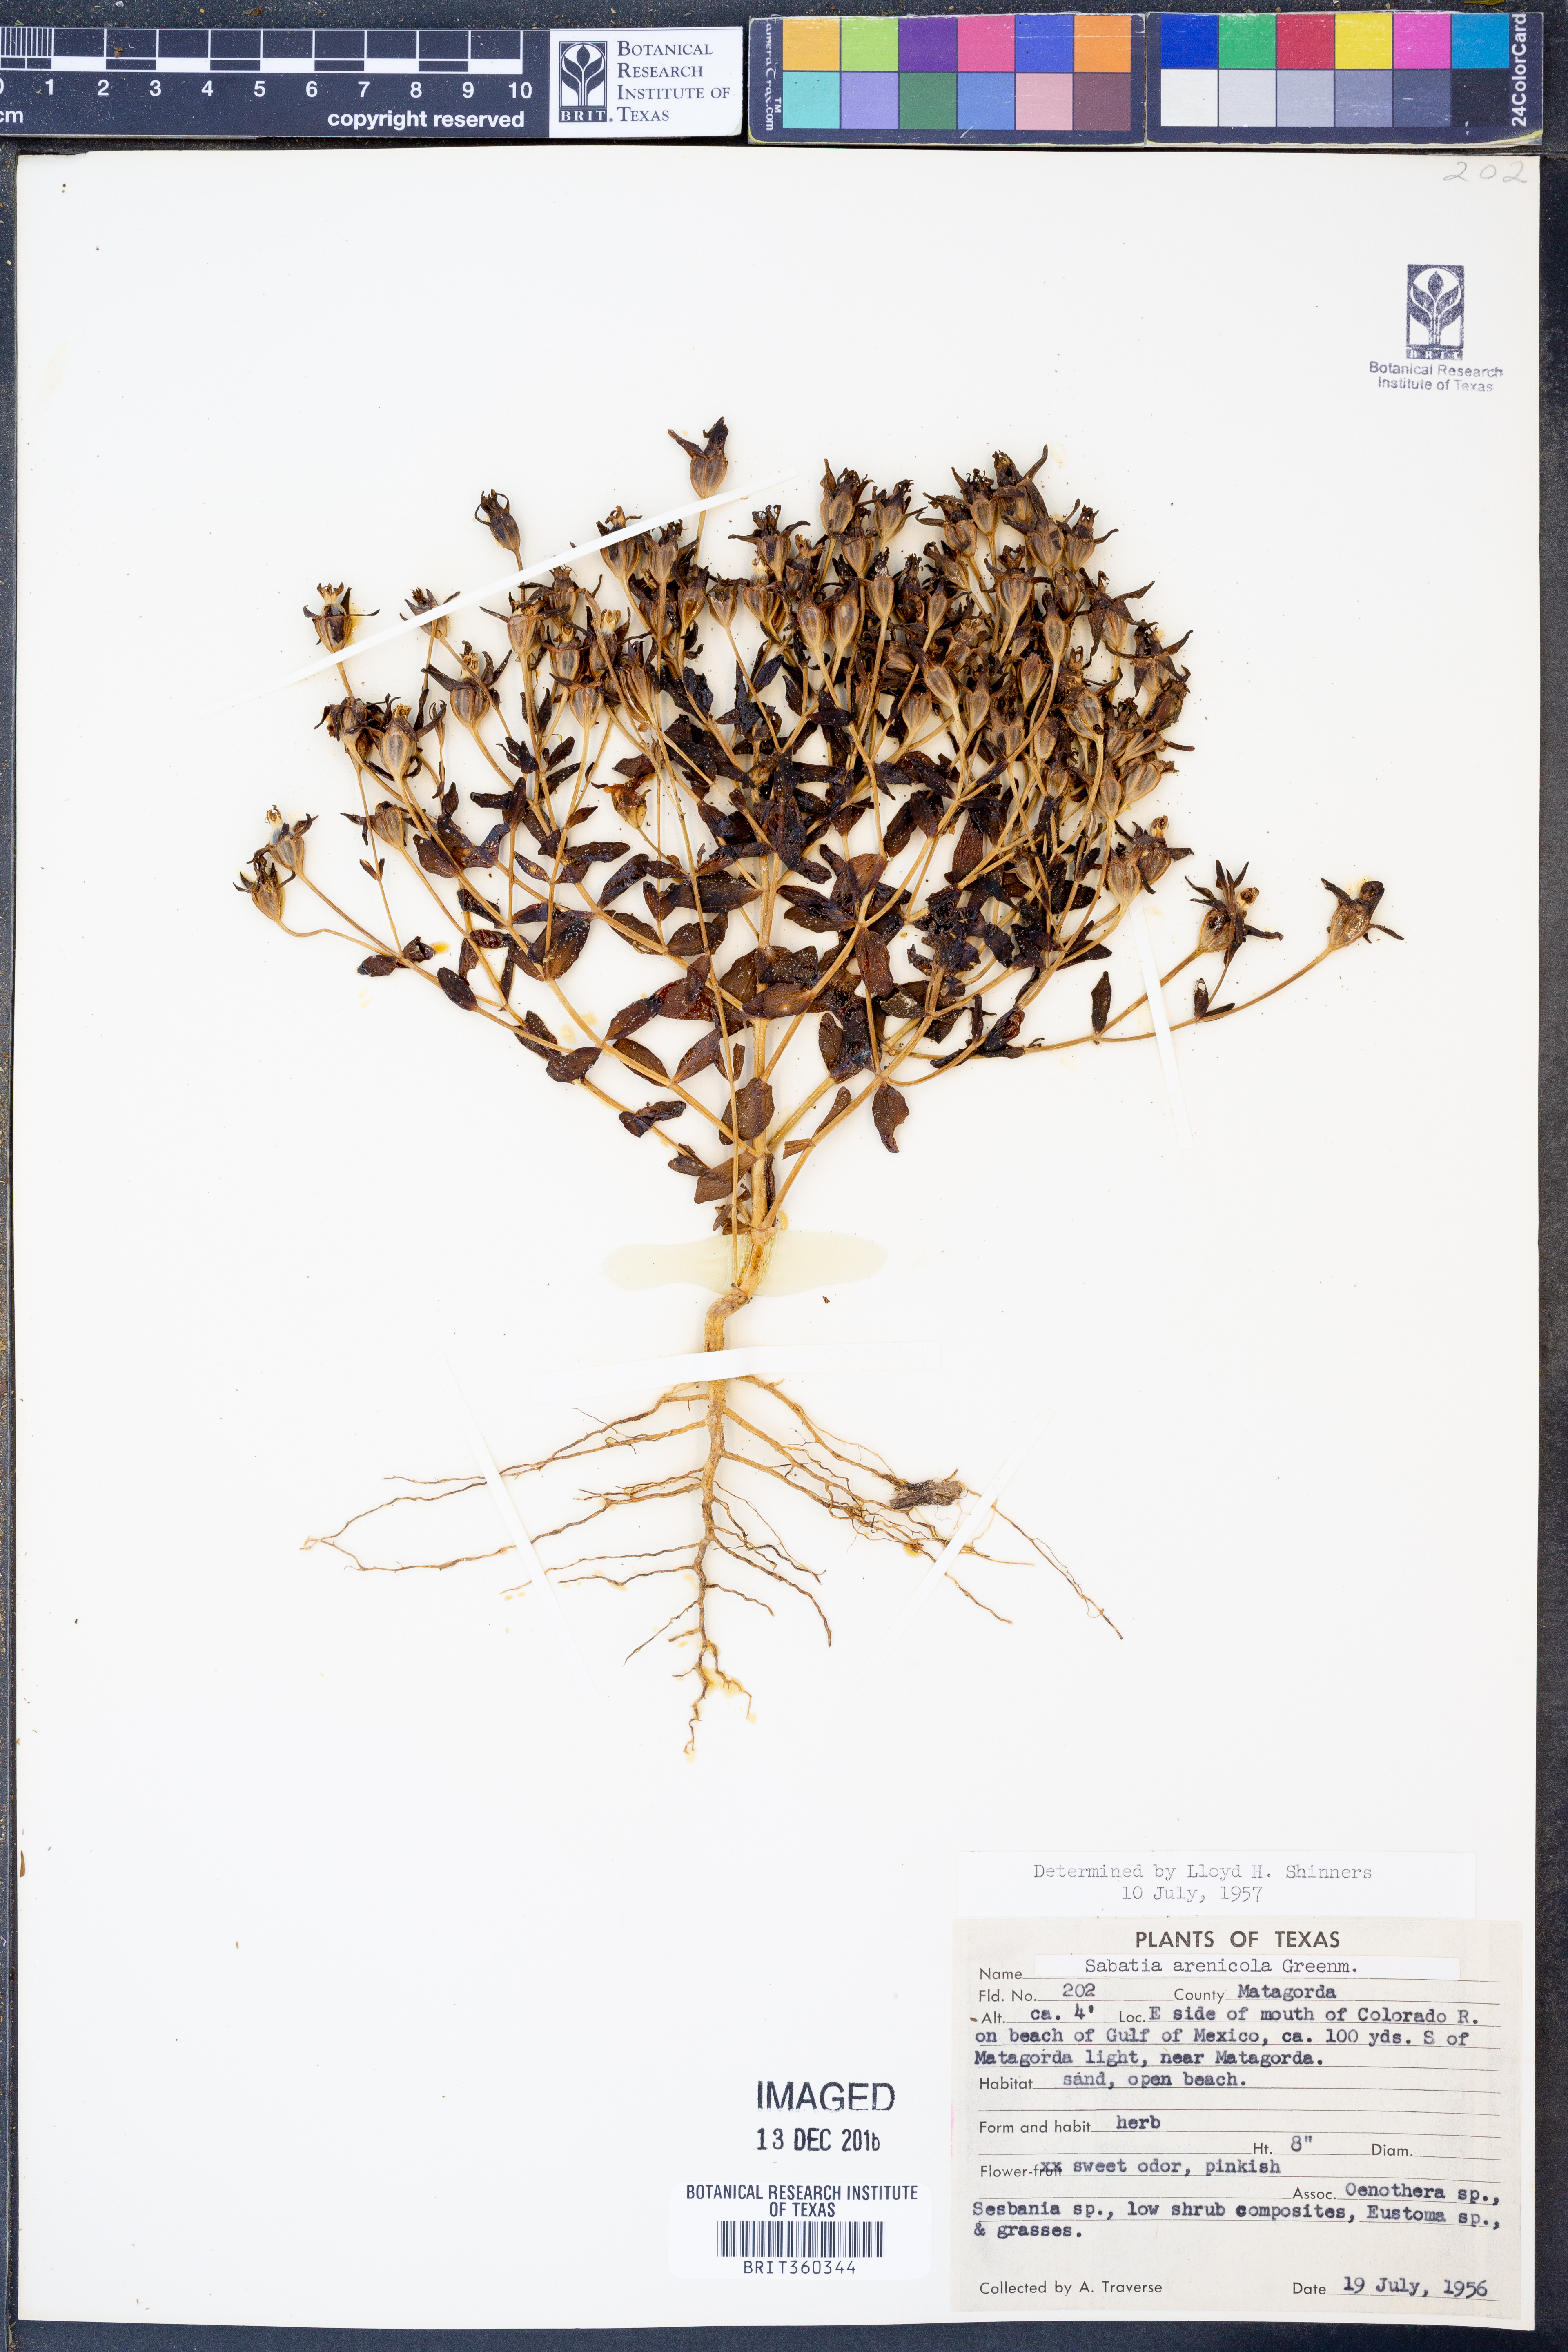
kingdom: Plantae
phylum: Tracheophyta
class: Magnoliopsida
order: Gentianales
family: Gentianaceae
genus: Sabatia
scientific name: Sabatia arenicola
